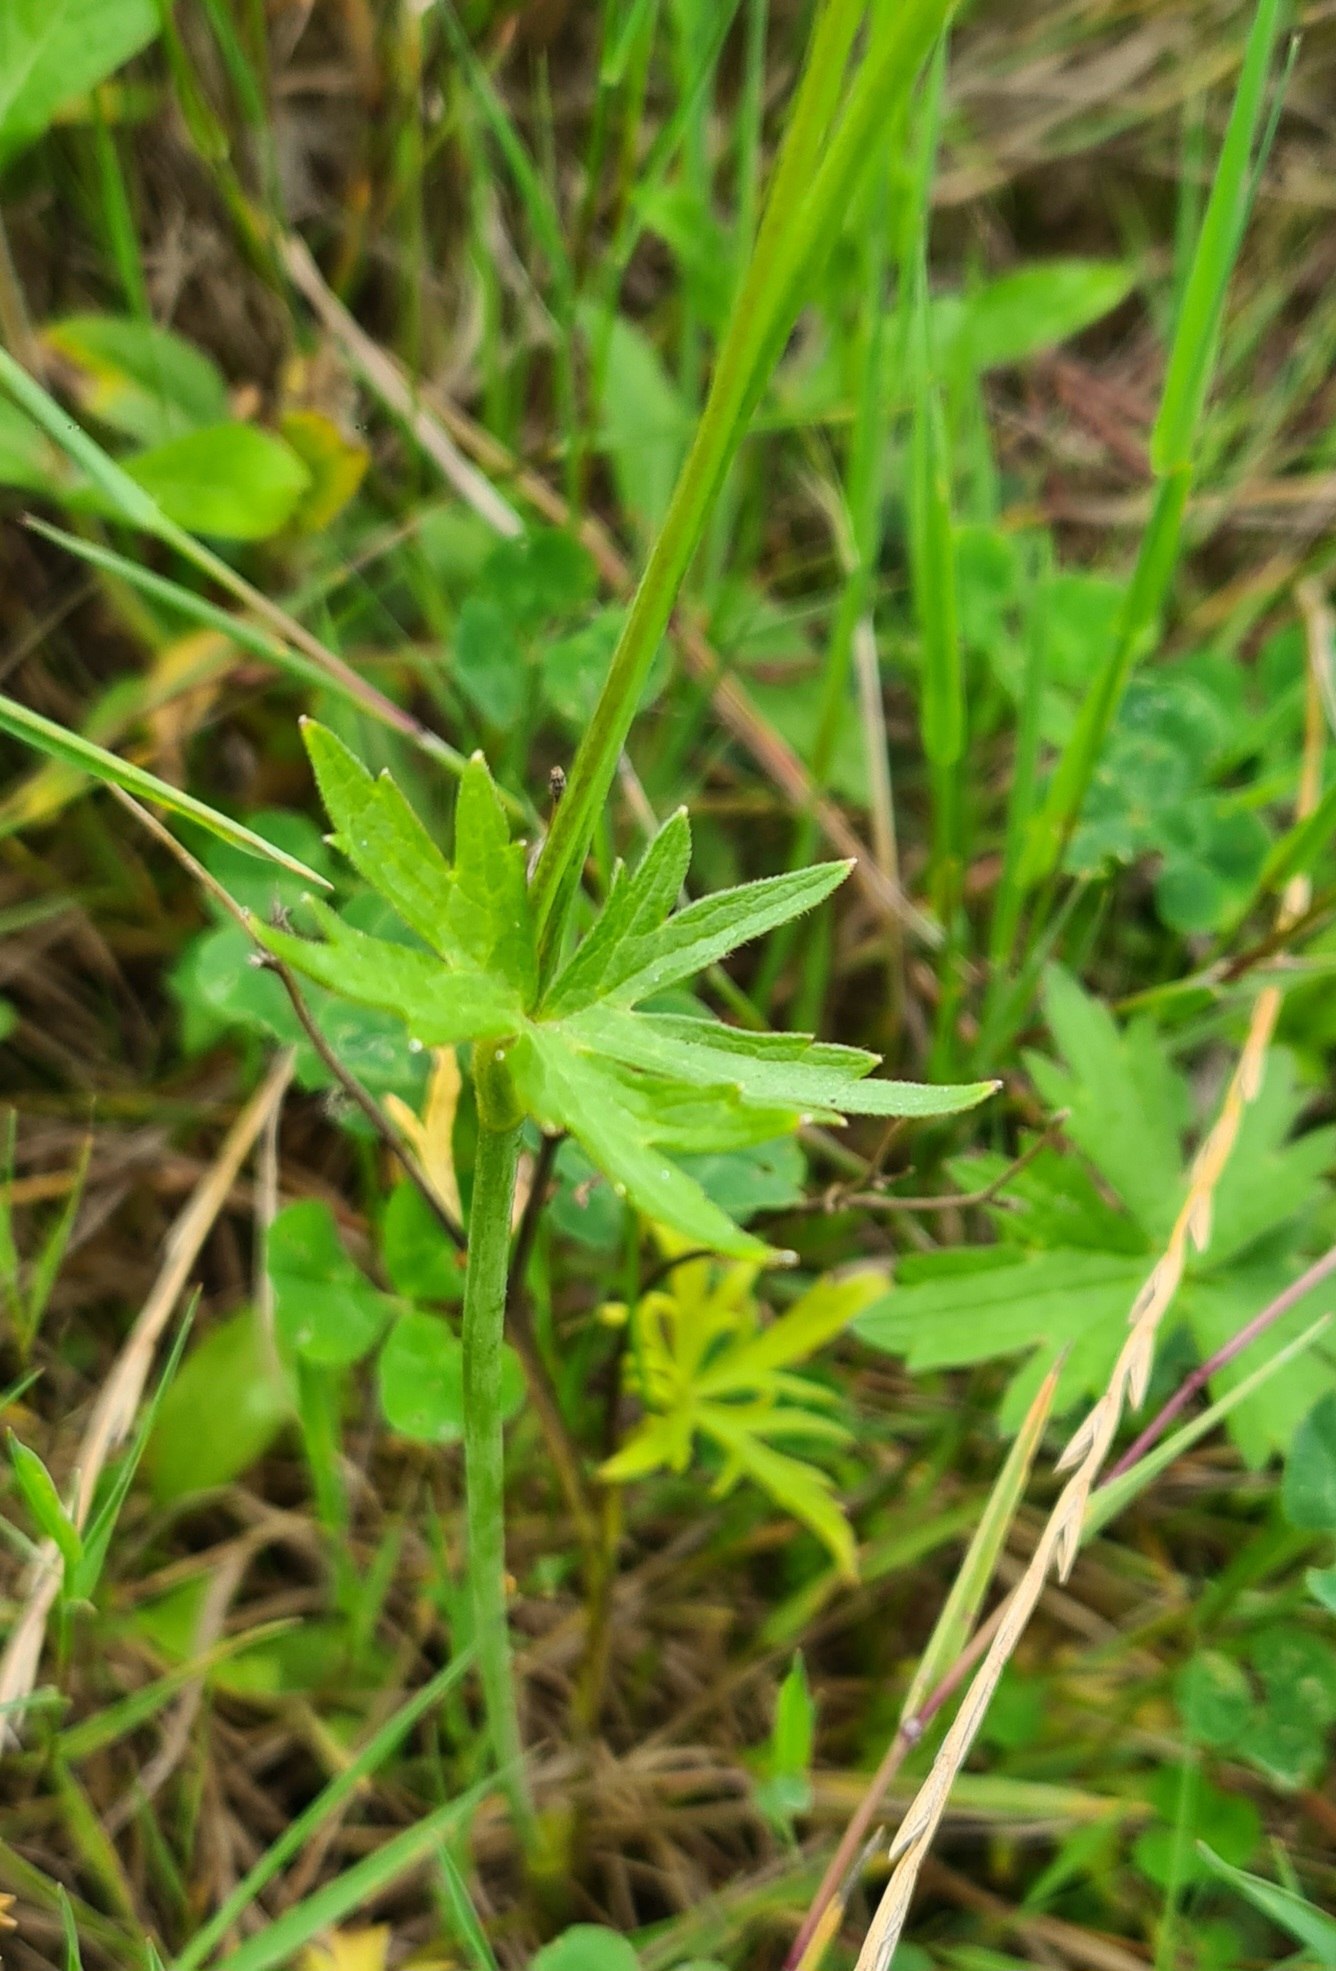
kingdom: Plantae
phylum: Tracheophyta
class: Magnoliopsida
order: Ranunculales
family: Ranunculaceae
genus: Ranunculus
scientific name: Ranunculus acris
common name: Bidende ranunkel
